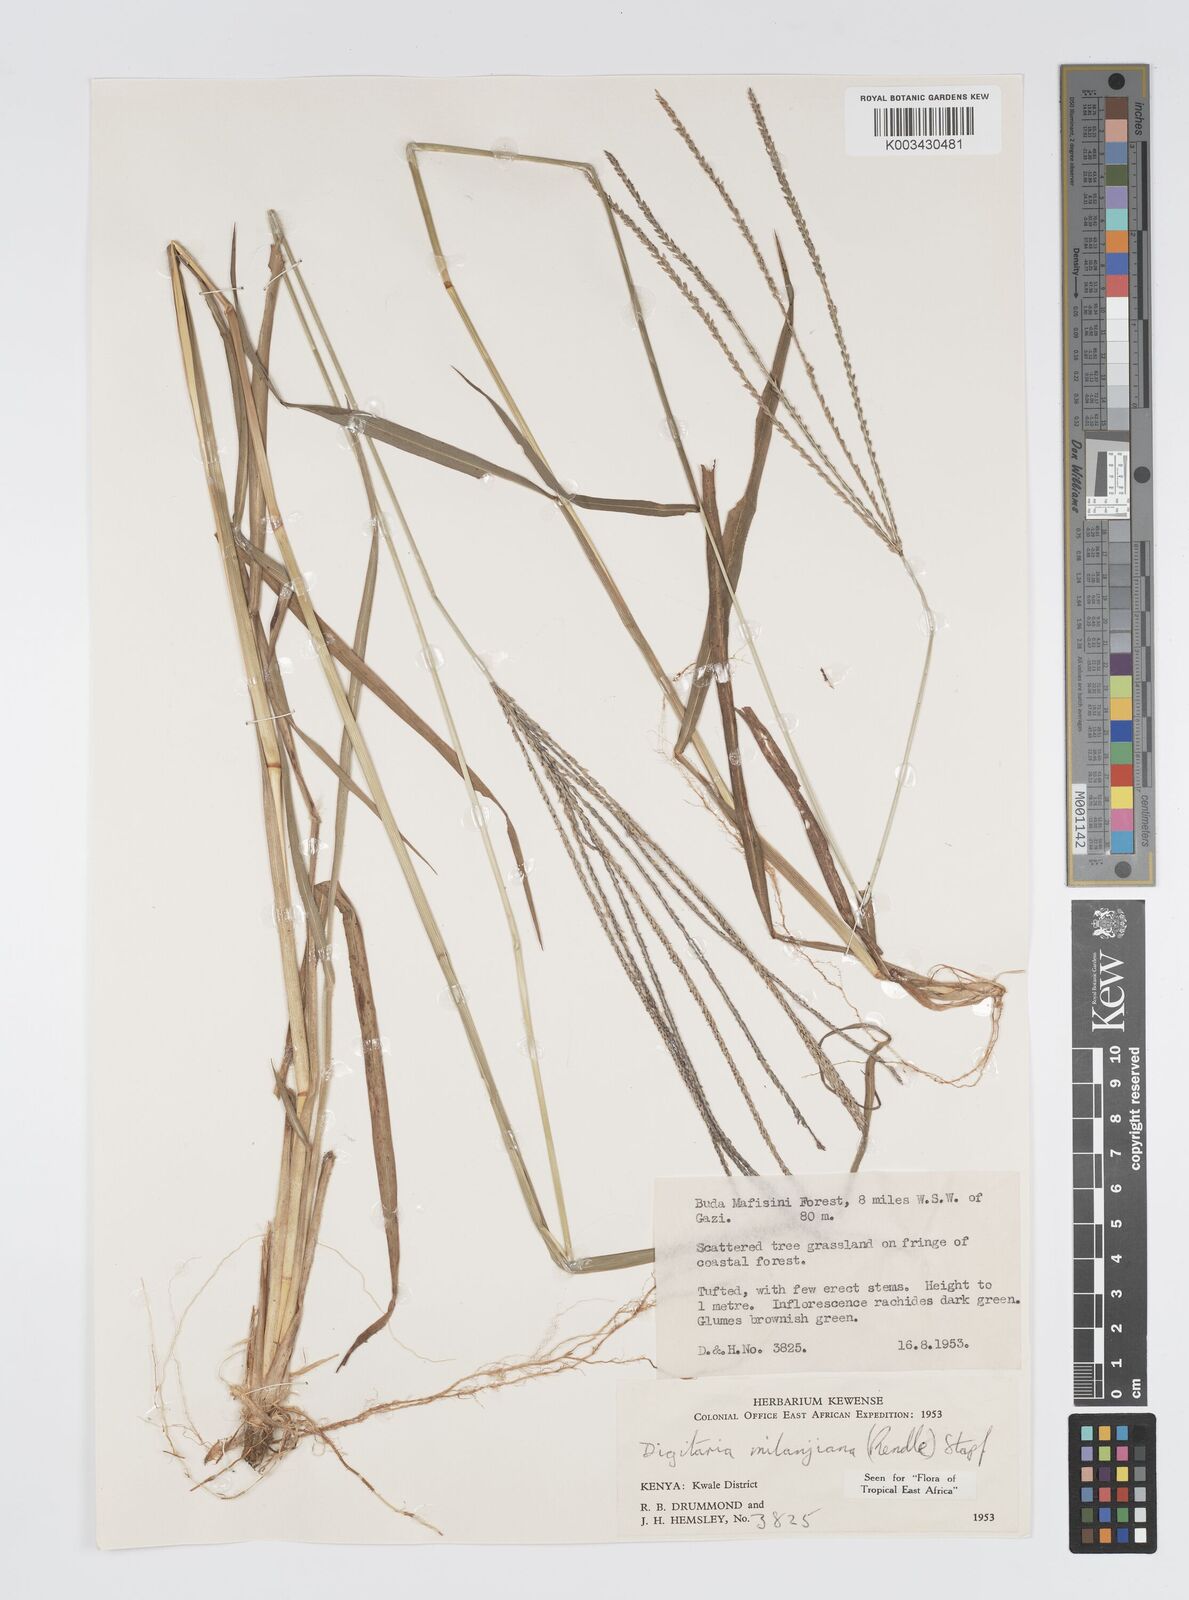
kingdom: Plantae
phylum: Tracheophyta
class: Liliopsida
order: Poales
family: Poaceae
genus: Digitaria
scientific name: Digitaria milanjiana
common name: Madagascar crabgrass
